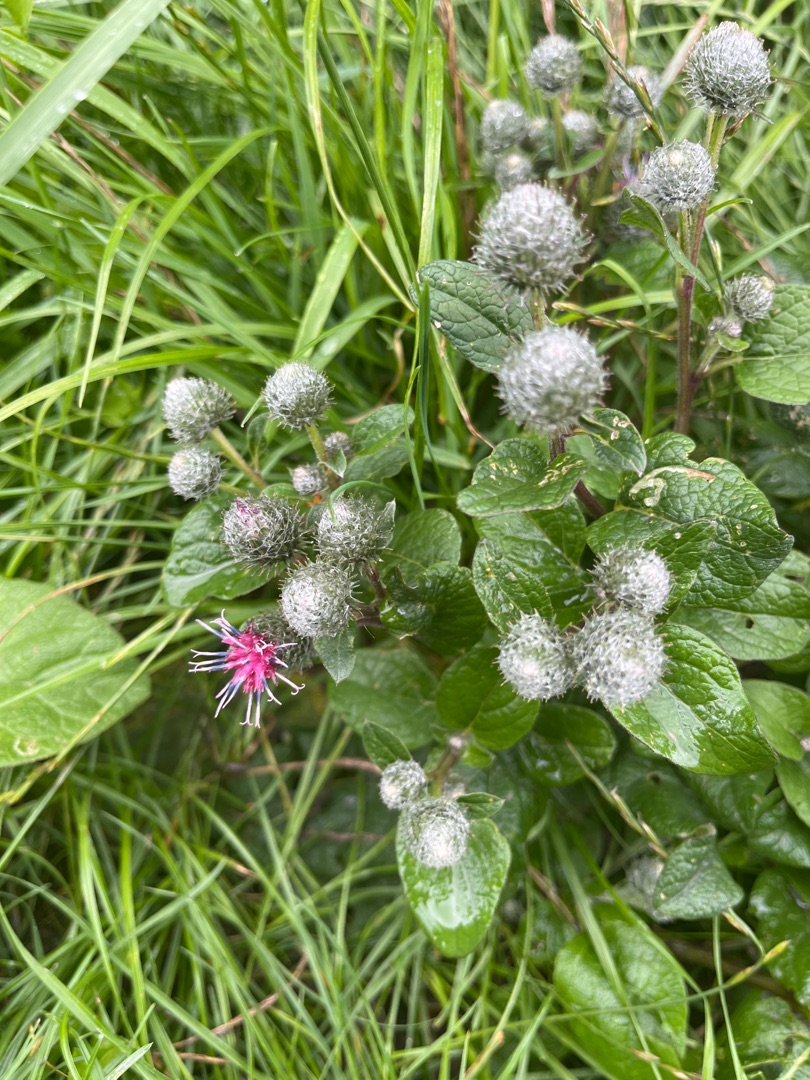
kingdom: Plantae
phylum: Tracheophyta
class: Magnoliopsida
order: Asterales
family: Asteraceae
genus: Arctium
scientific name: Arctium tomentosum
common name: Filtet burre
